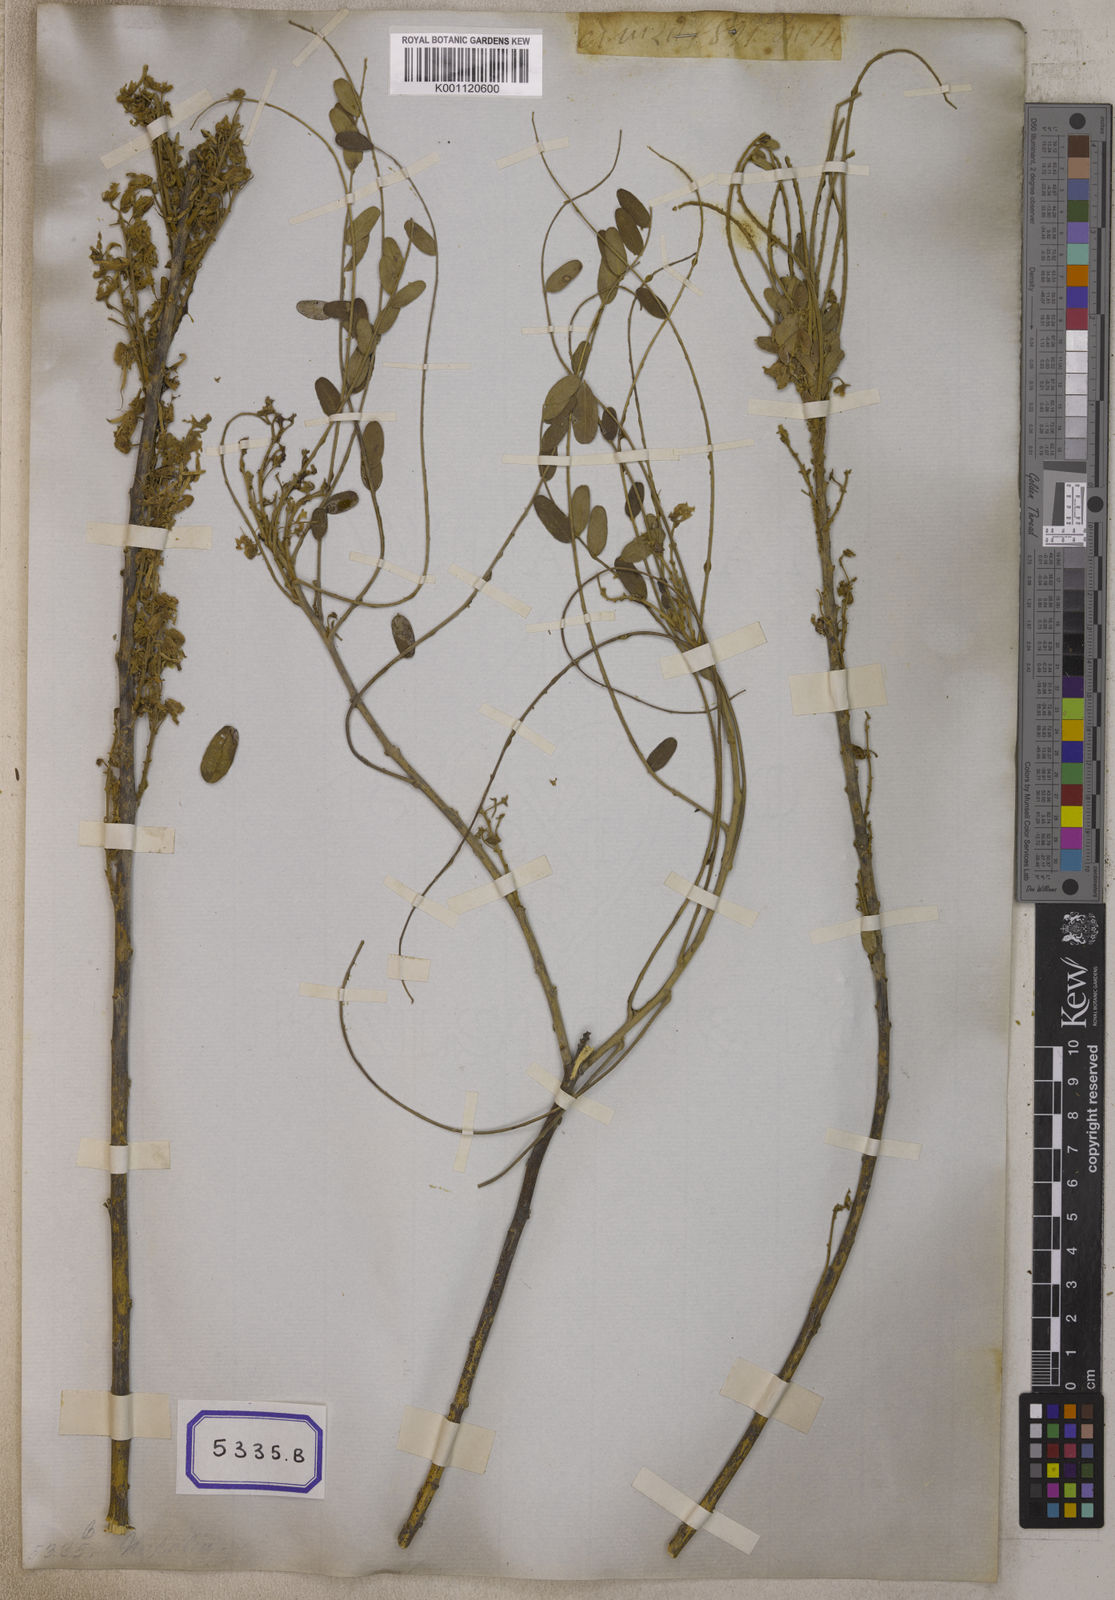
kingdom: Plantae
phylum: Tracheophyta
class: Magnoliopsida
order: Fabales
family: Fabaceae
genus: Sophora
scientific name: Sophora
